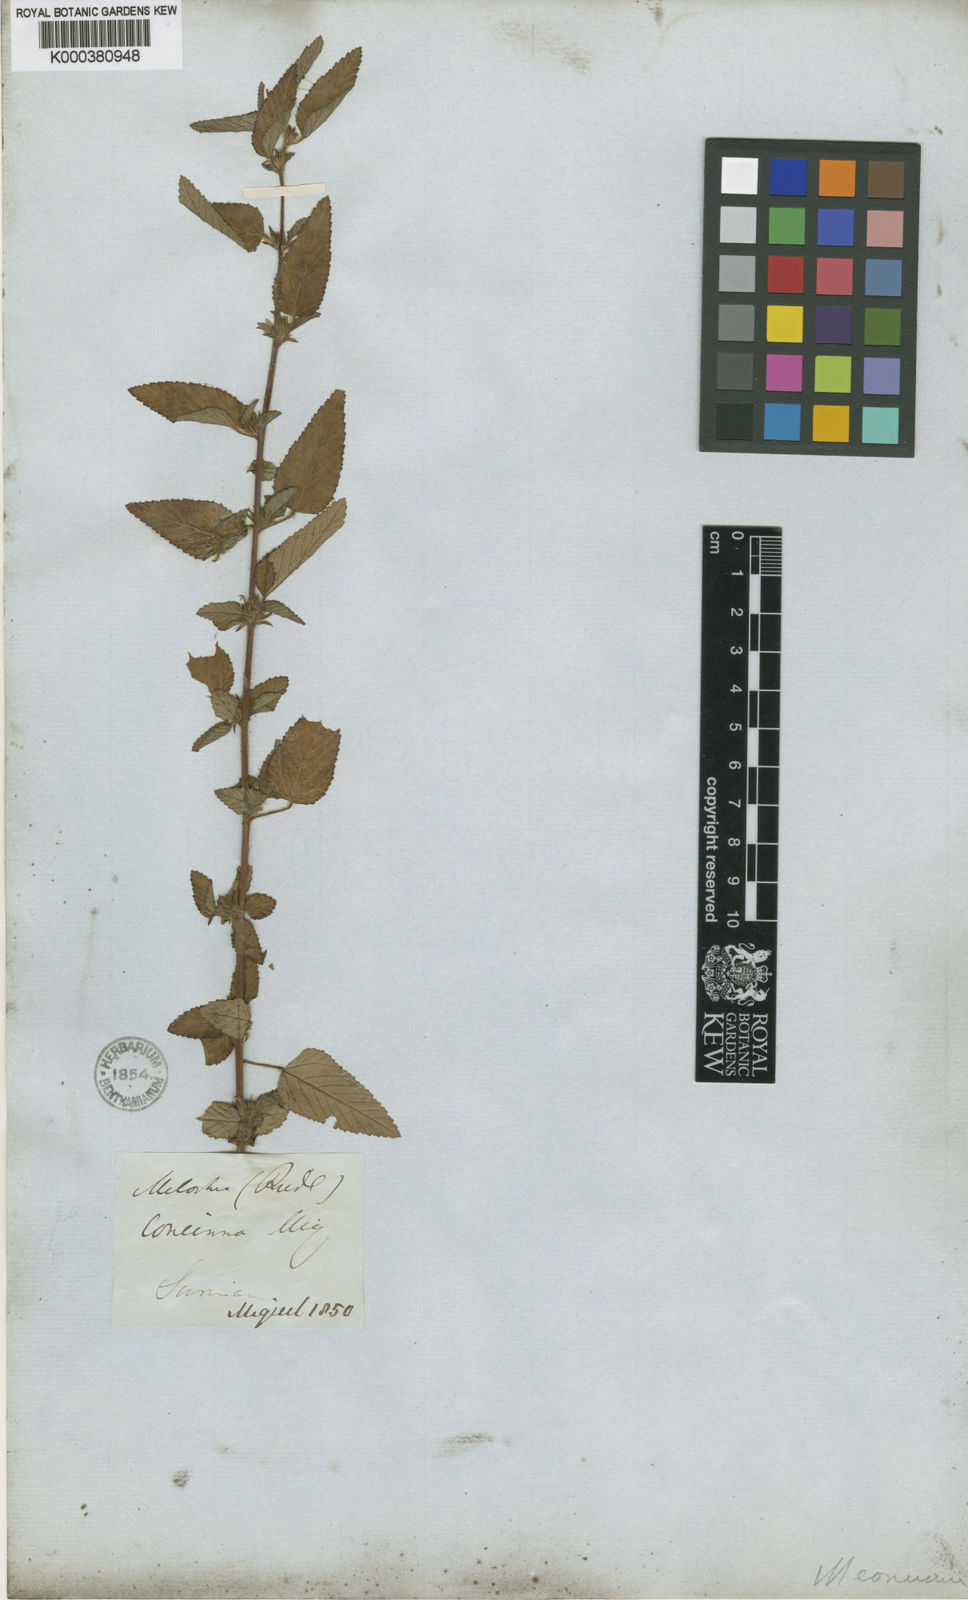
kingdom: Plantae
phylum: Tracheophyta
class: Magnoliopsida
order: Malvales
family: Malvaceae
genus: Melochia
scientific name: Melochia melissifolia
